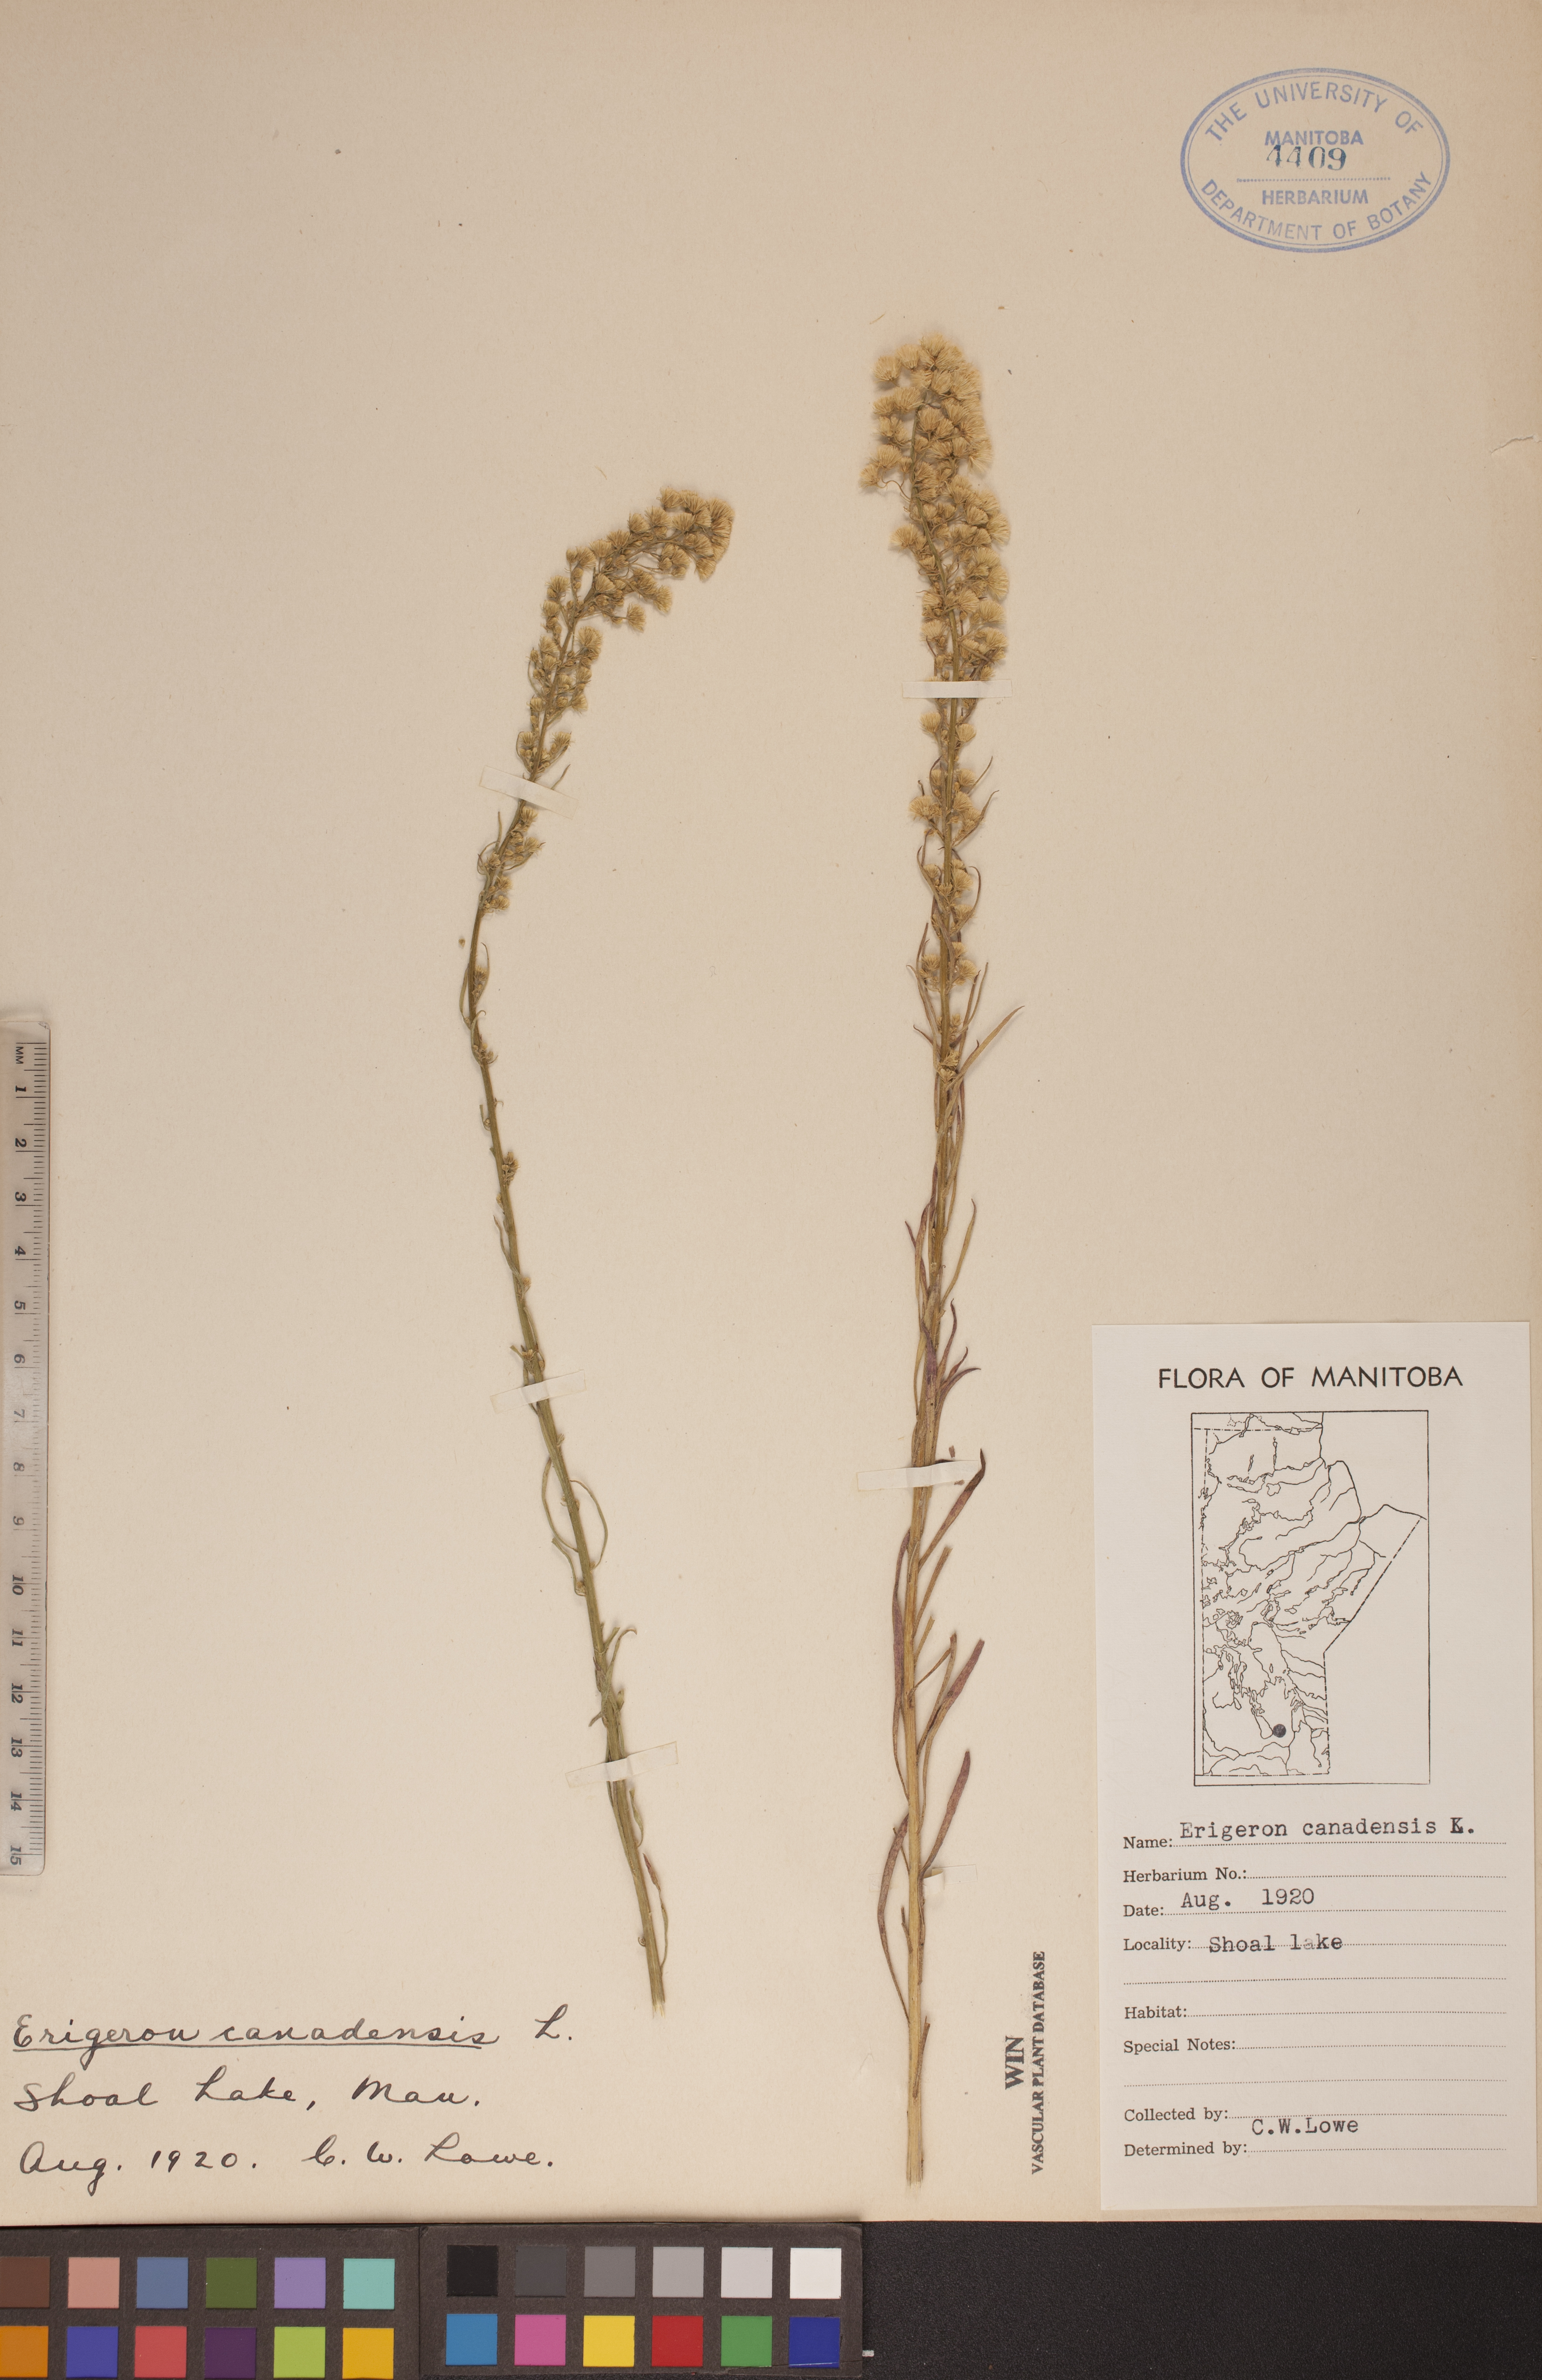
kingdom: Plantae
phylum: Tracheophyta
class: Magnoliopsida
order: Asterales
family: Asteraceae
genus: Erigeron
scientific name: Erigeron canadensis
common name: Canadian fleabane
